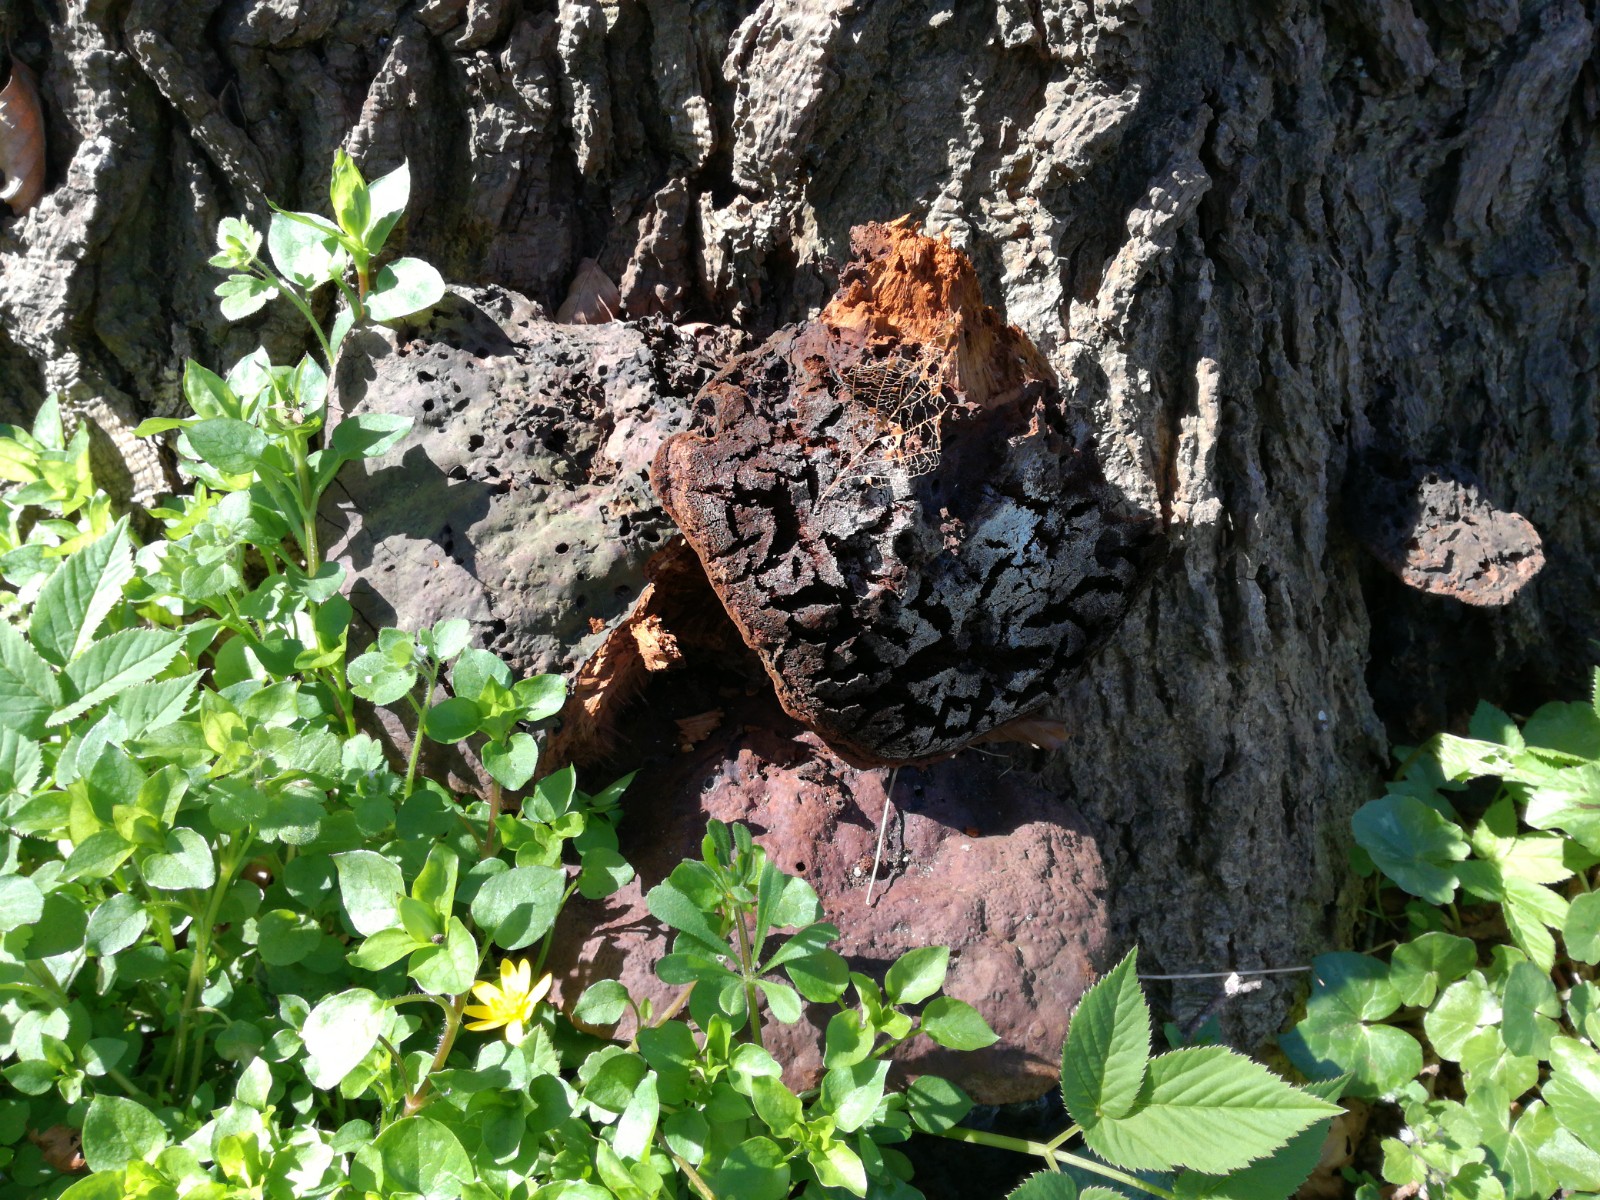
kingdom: Fungi
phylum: Basidiomycota
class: Agaricomycetes
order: Hymenochaetales
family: Hymenochaetaceae
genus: Pseudoinonotus
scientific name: Pseudoinonotus dryadeus
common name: ege-spejlporesvamp
